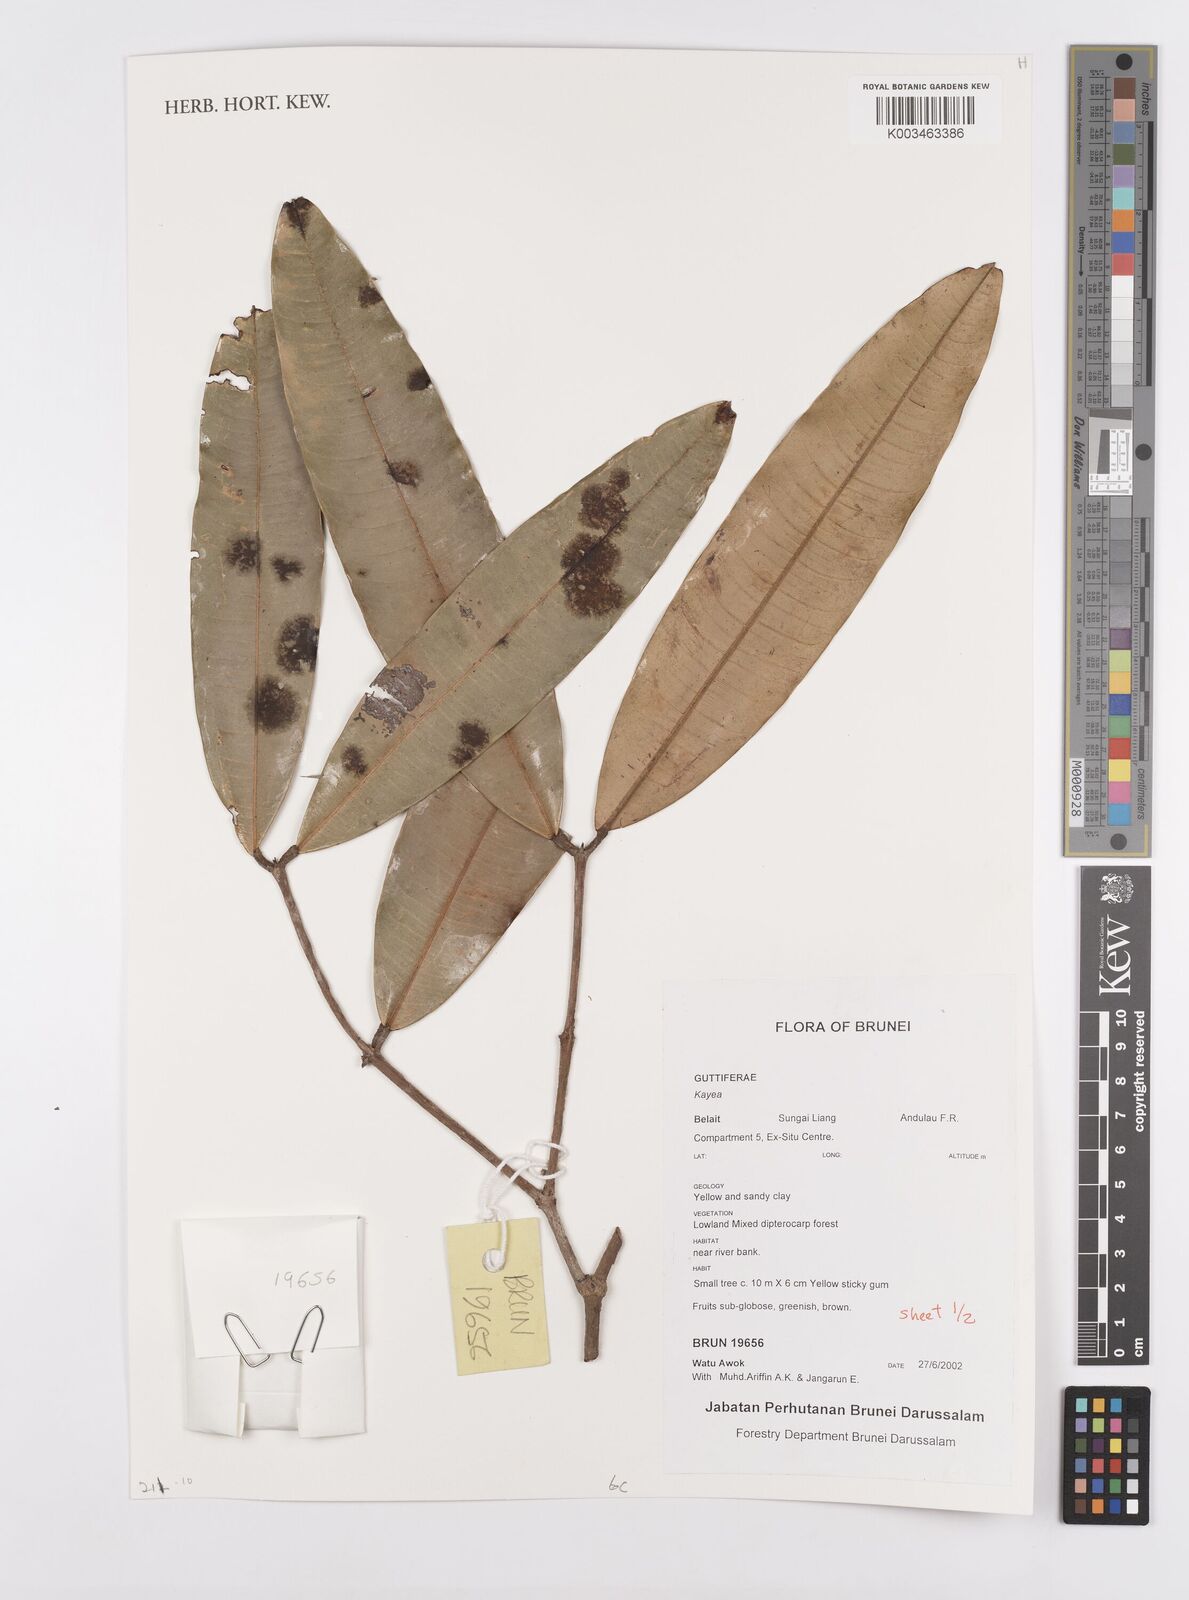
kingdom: Plantae
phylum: Tracheophyta
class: Magnoliopsida
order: Malpighiales
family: Calophyllaceae
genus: Kayea
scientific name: Kayea
